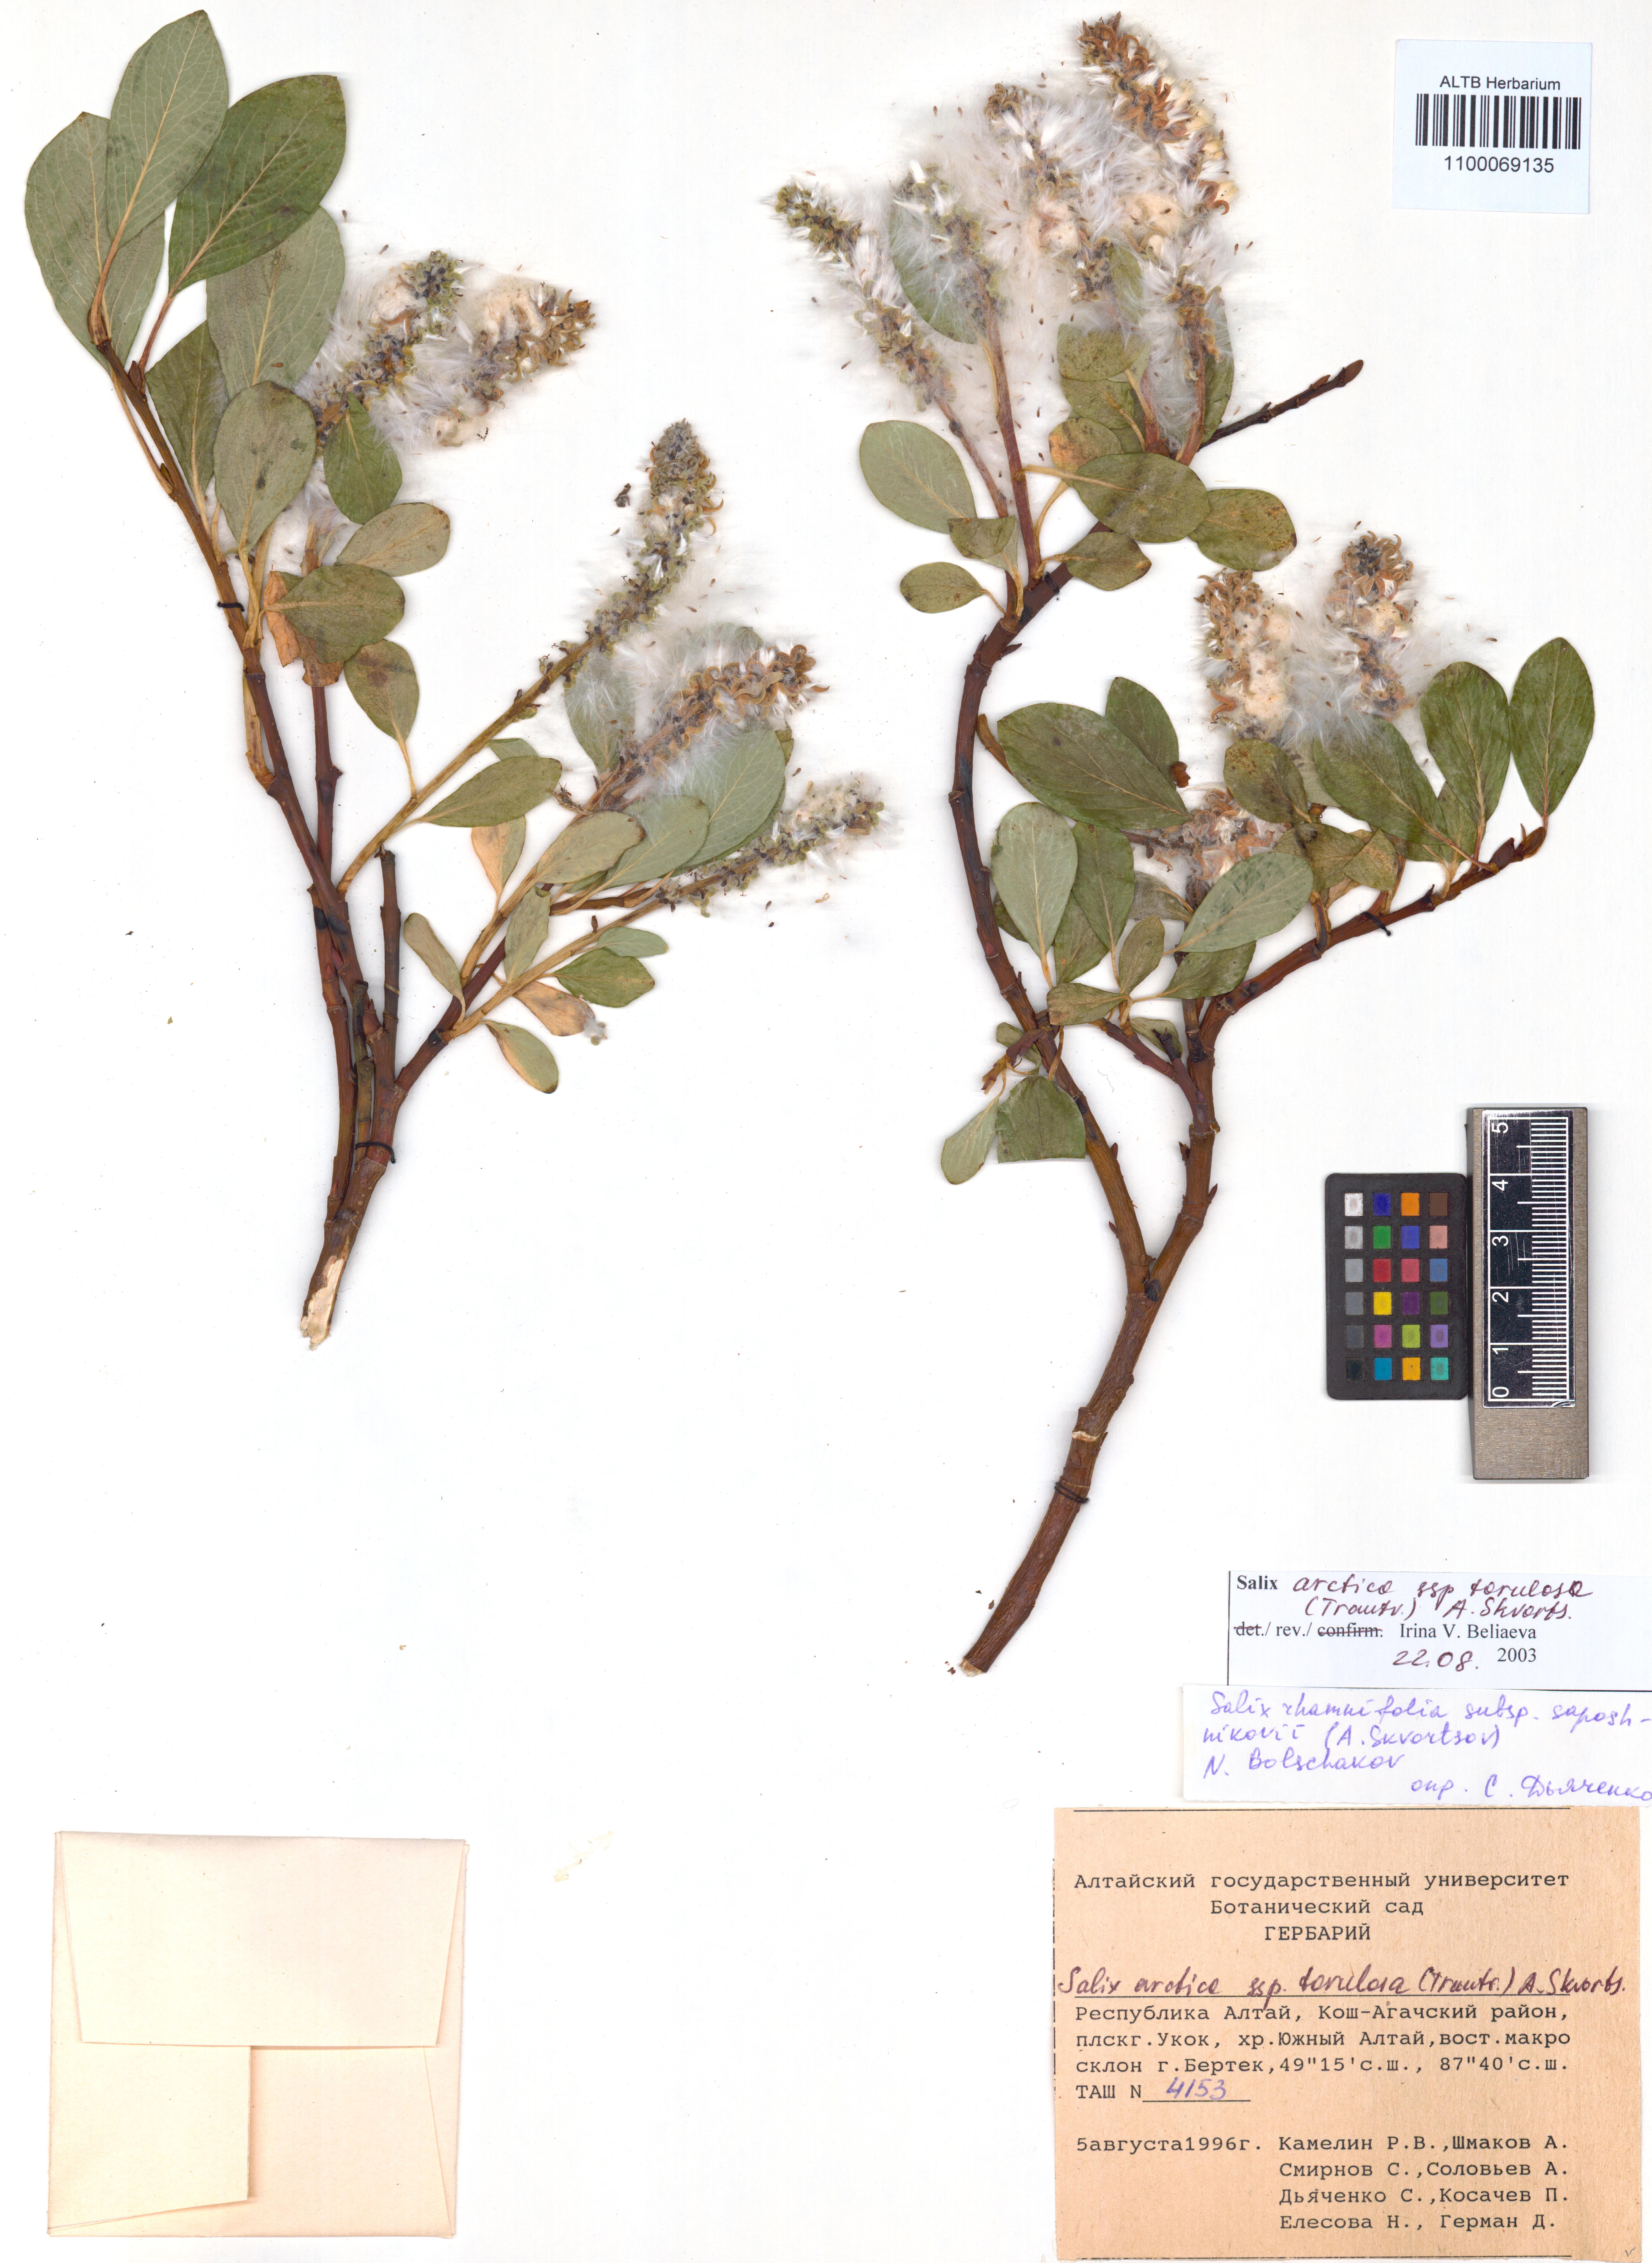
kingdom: Plantae
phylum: Tracheophyta
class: Magnoliopsida
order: Malpighiales
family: Salicaceae
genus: Salix
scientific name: Salix arctica
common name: Arctic willow
